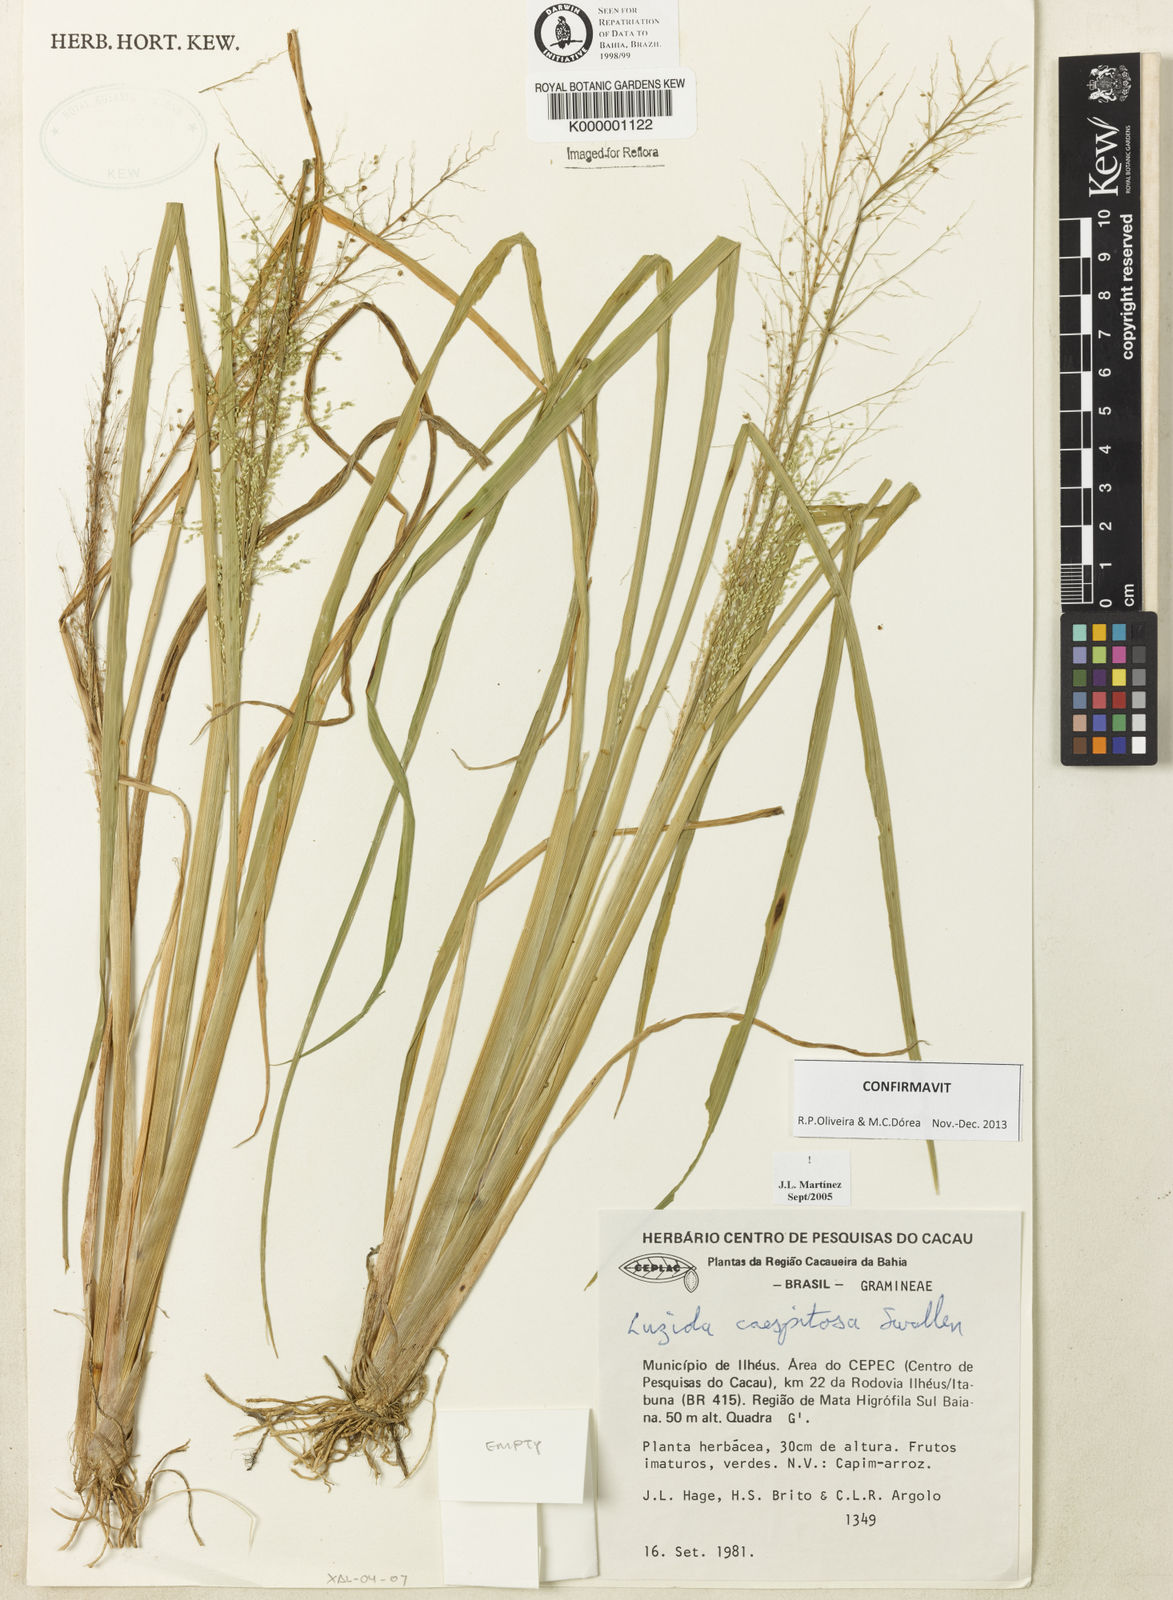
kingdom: Plantae
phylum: Tracheophyta
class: Liliopsida
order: Poales
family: Poaceae
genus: Luziola
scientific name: Luziola caespitosa
